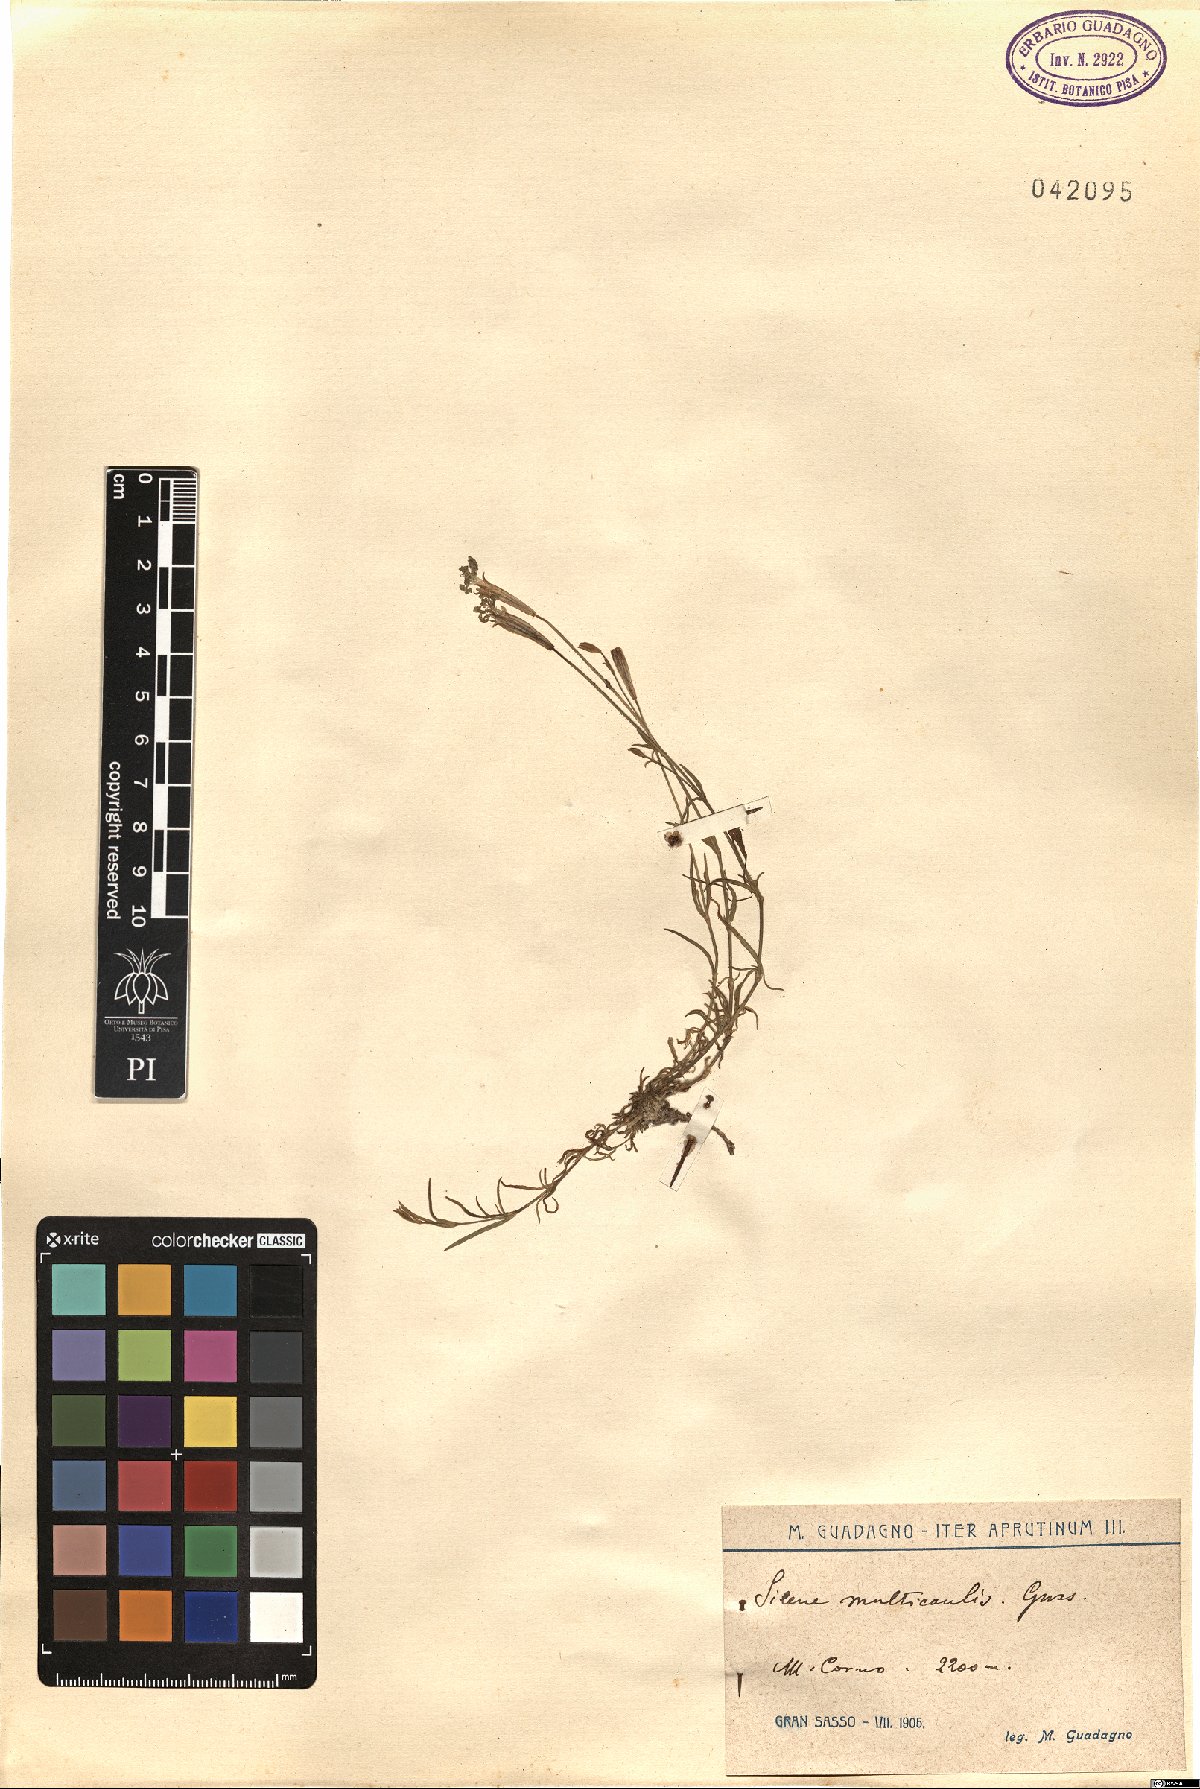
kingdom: Plantae
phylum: Tracheophyta
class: Magnoliopsida
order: Caryophyllales
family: Caryophyllaceae
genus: Silene
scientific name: Silene multicaulis
